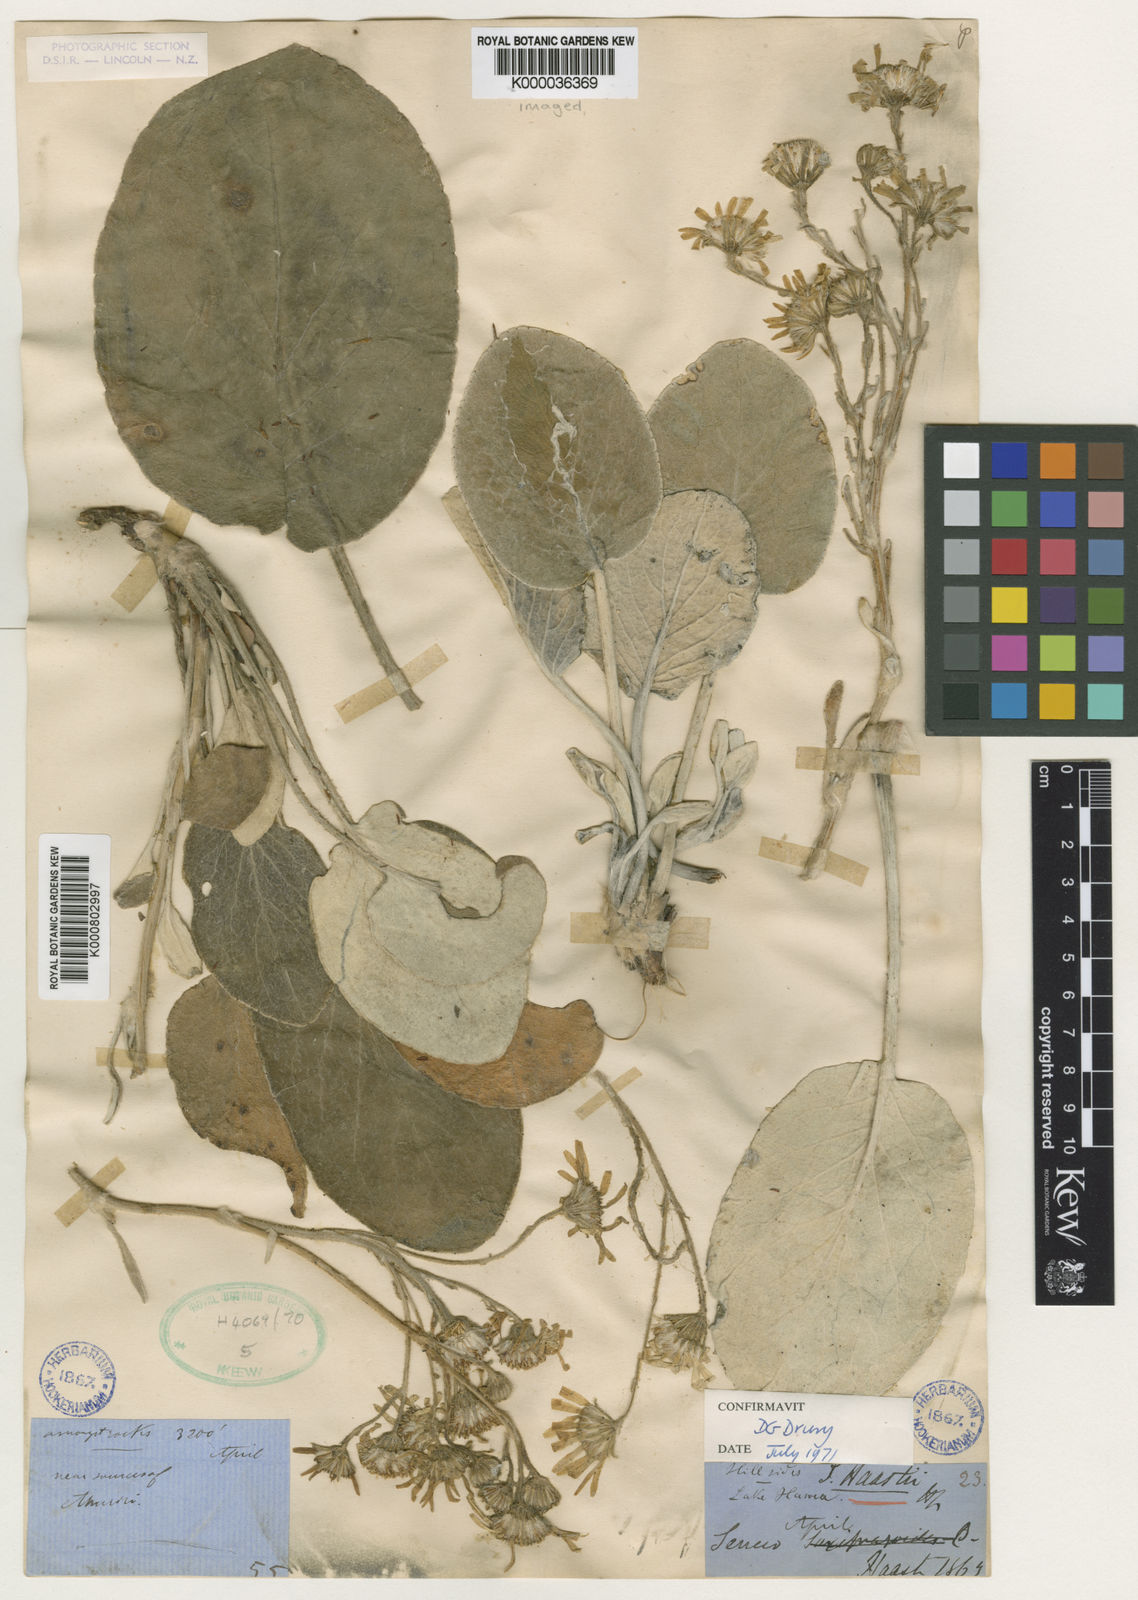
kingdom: Plantae
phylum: Tracheophyta
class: Magnoliopsida
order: Asterales
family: Asteraceae
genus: Brachyglottis
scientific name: Brachyglottis haastii
